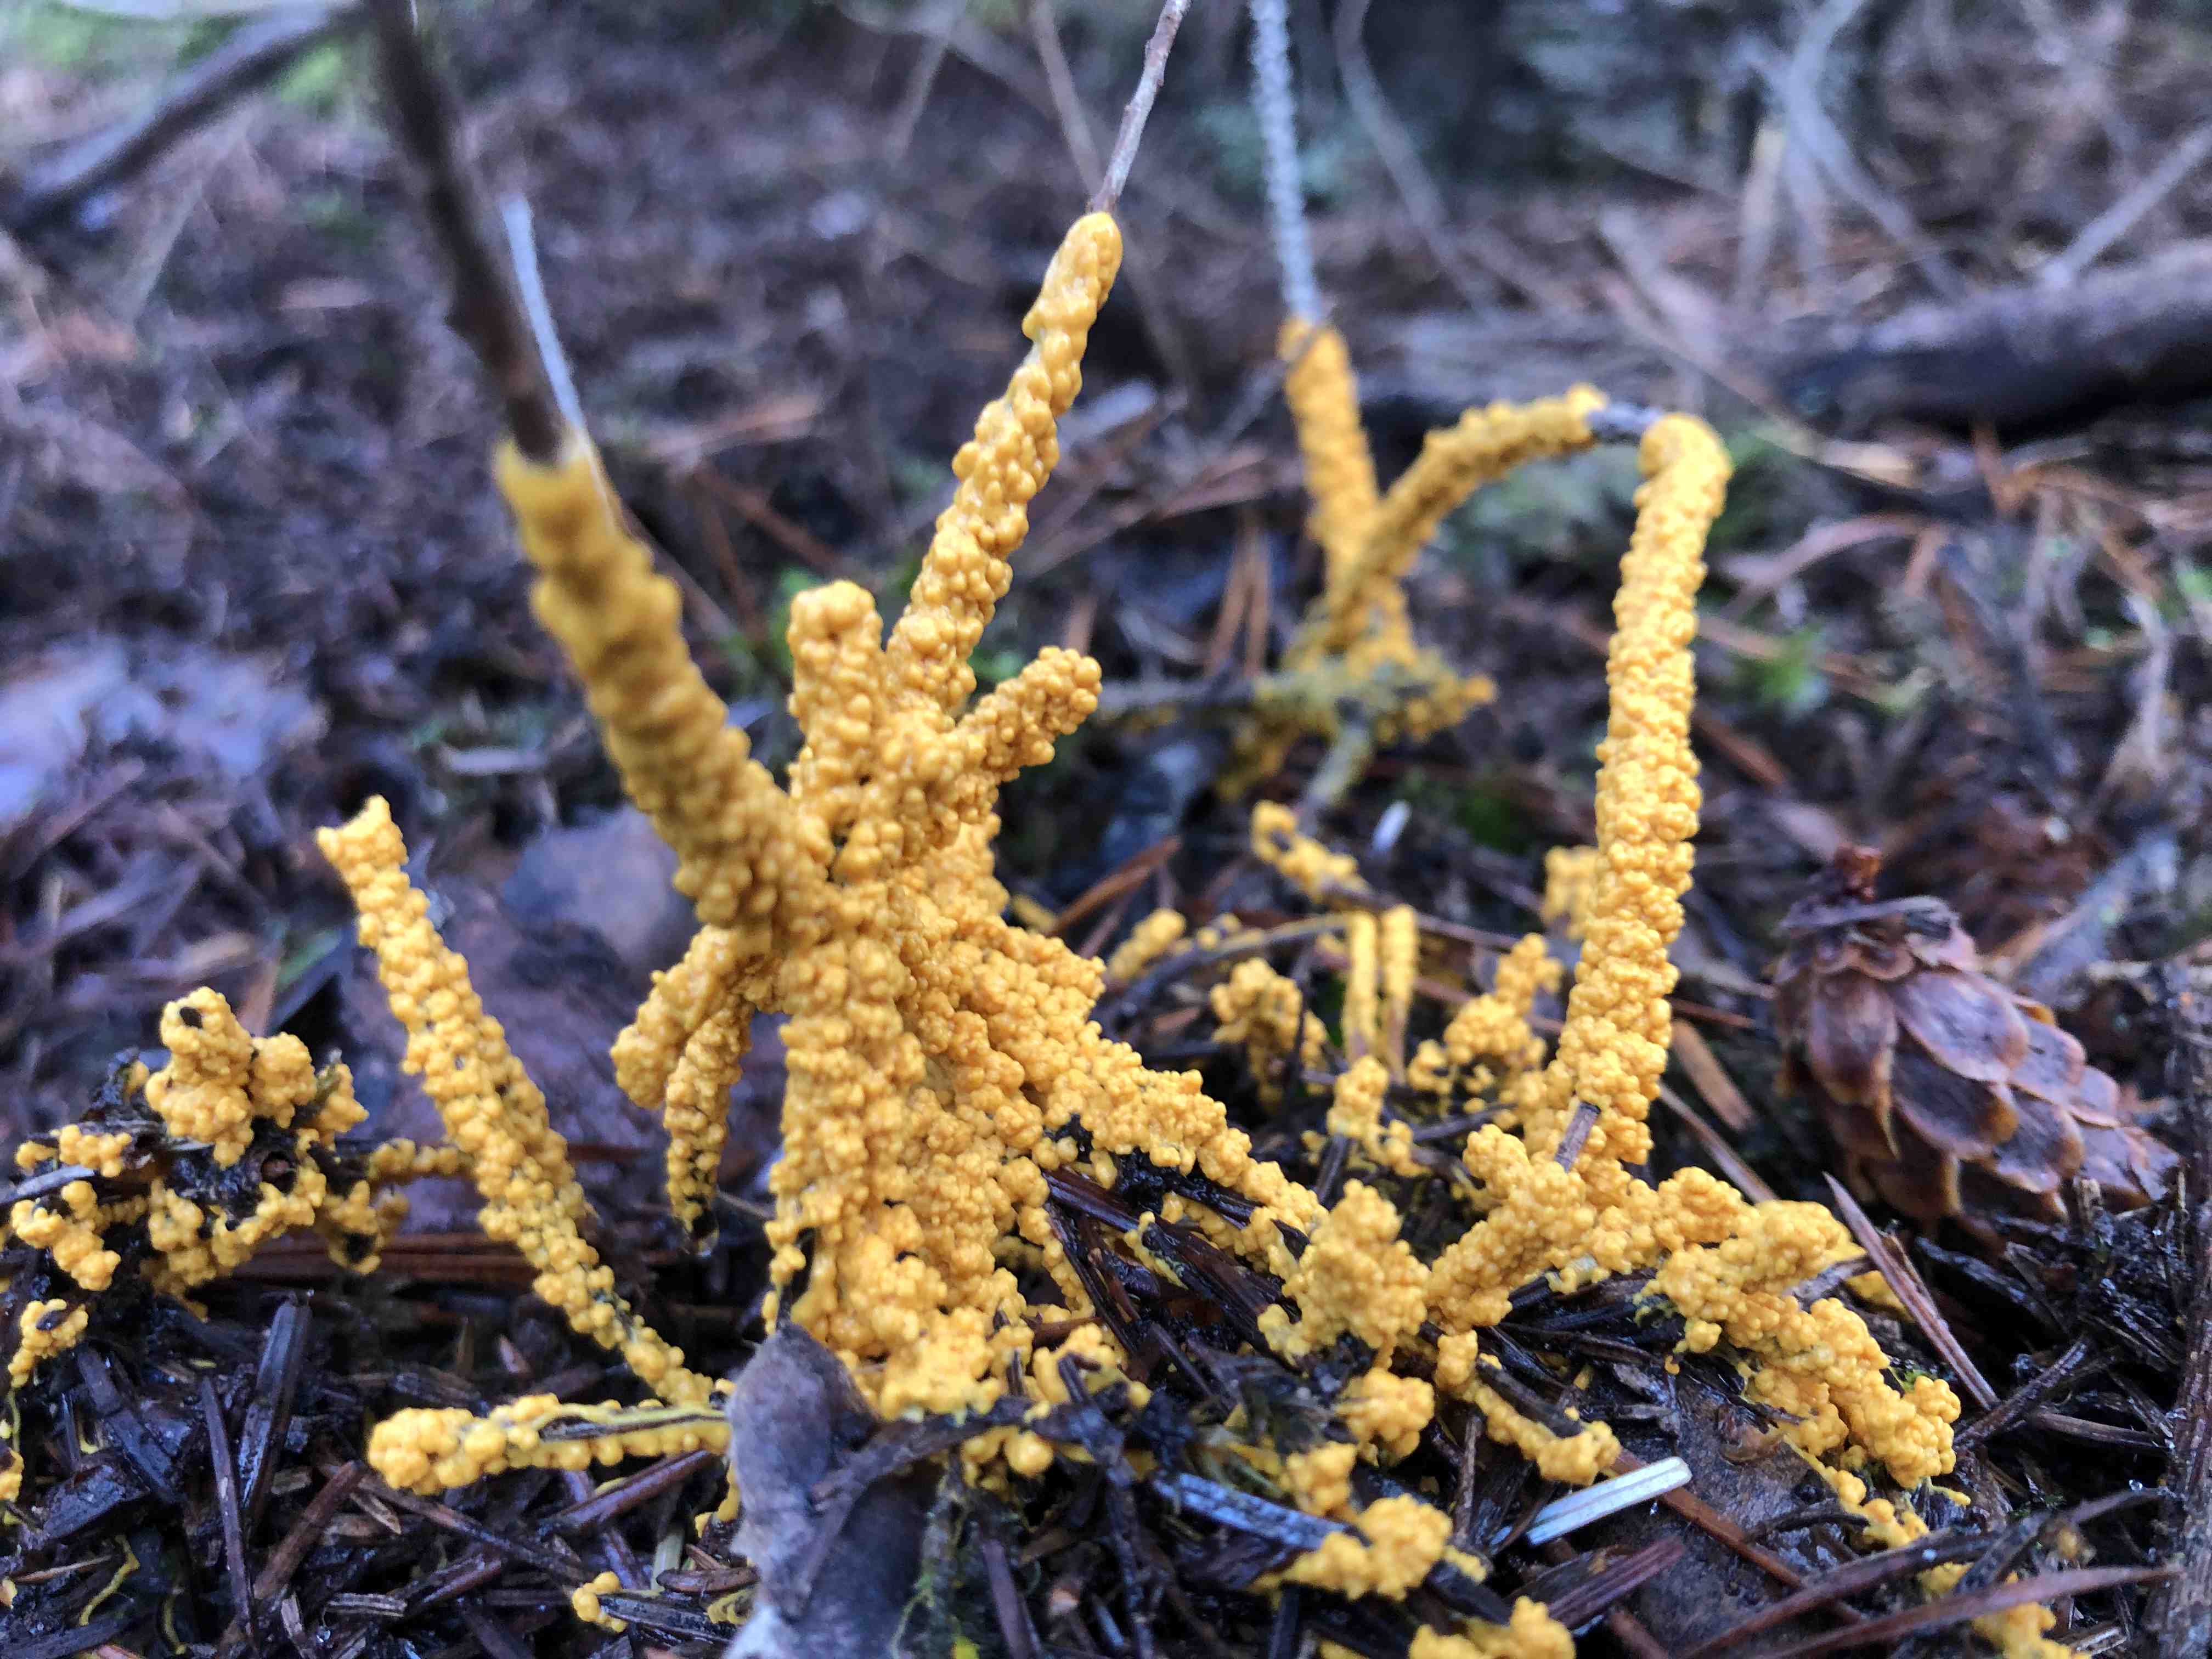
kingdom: Protozoa
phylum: Mycetozoa
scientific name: Mycetozoa
